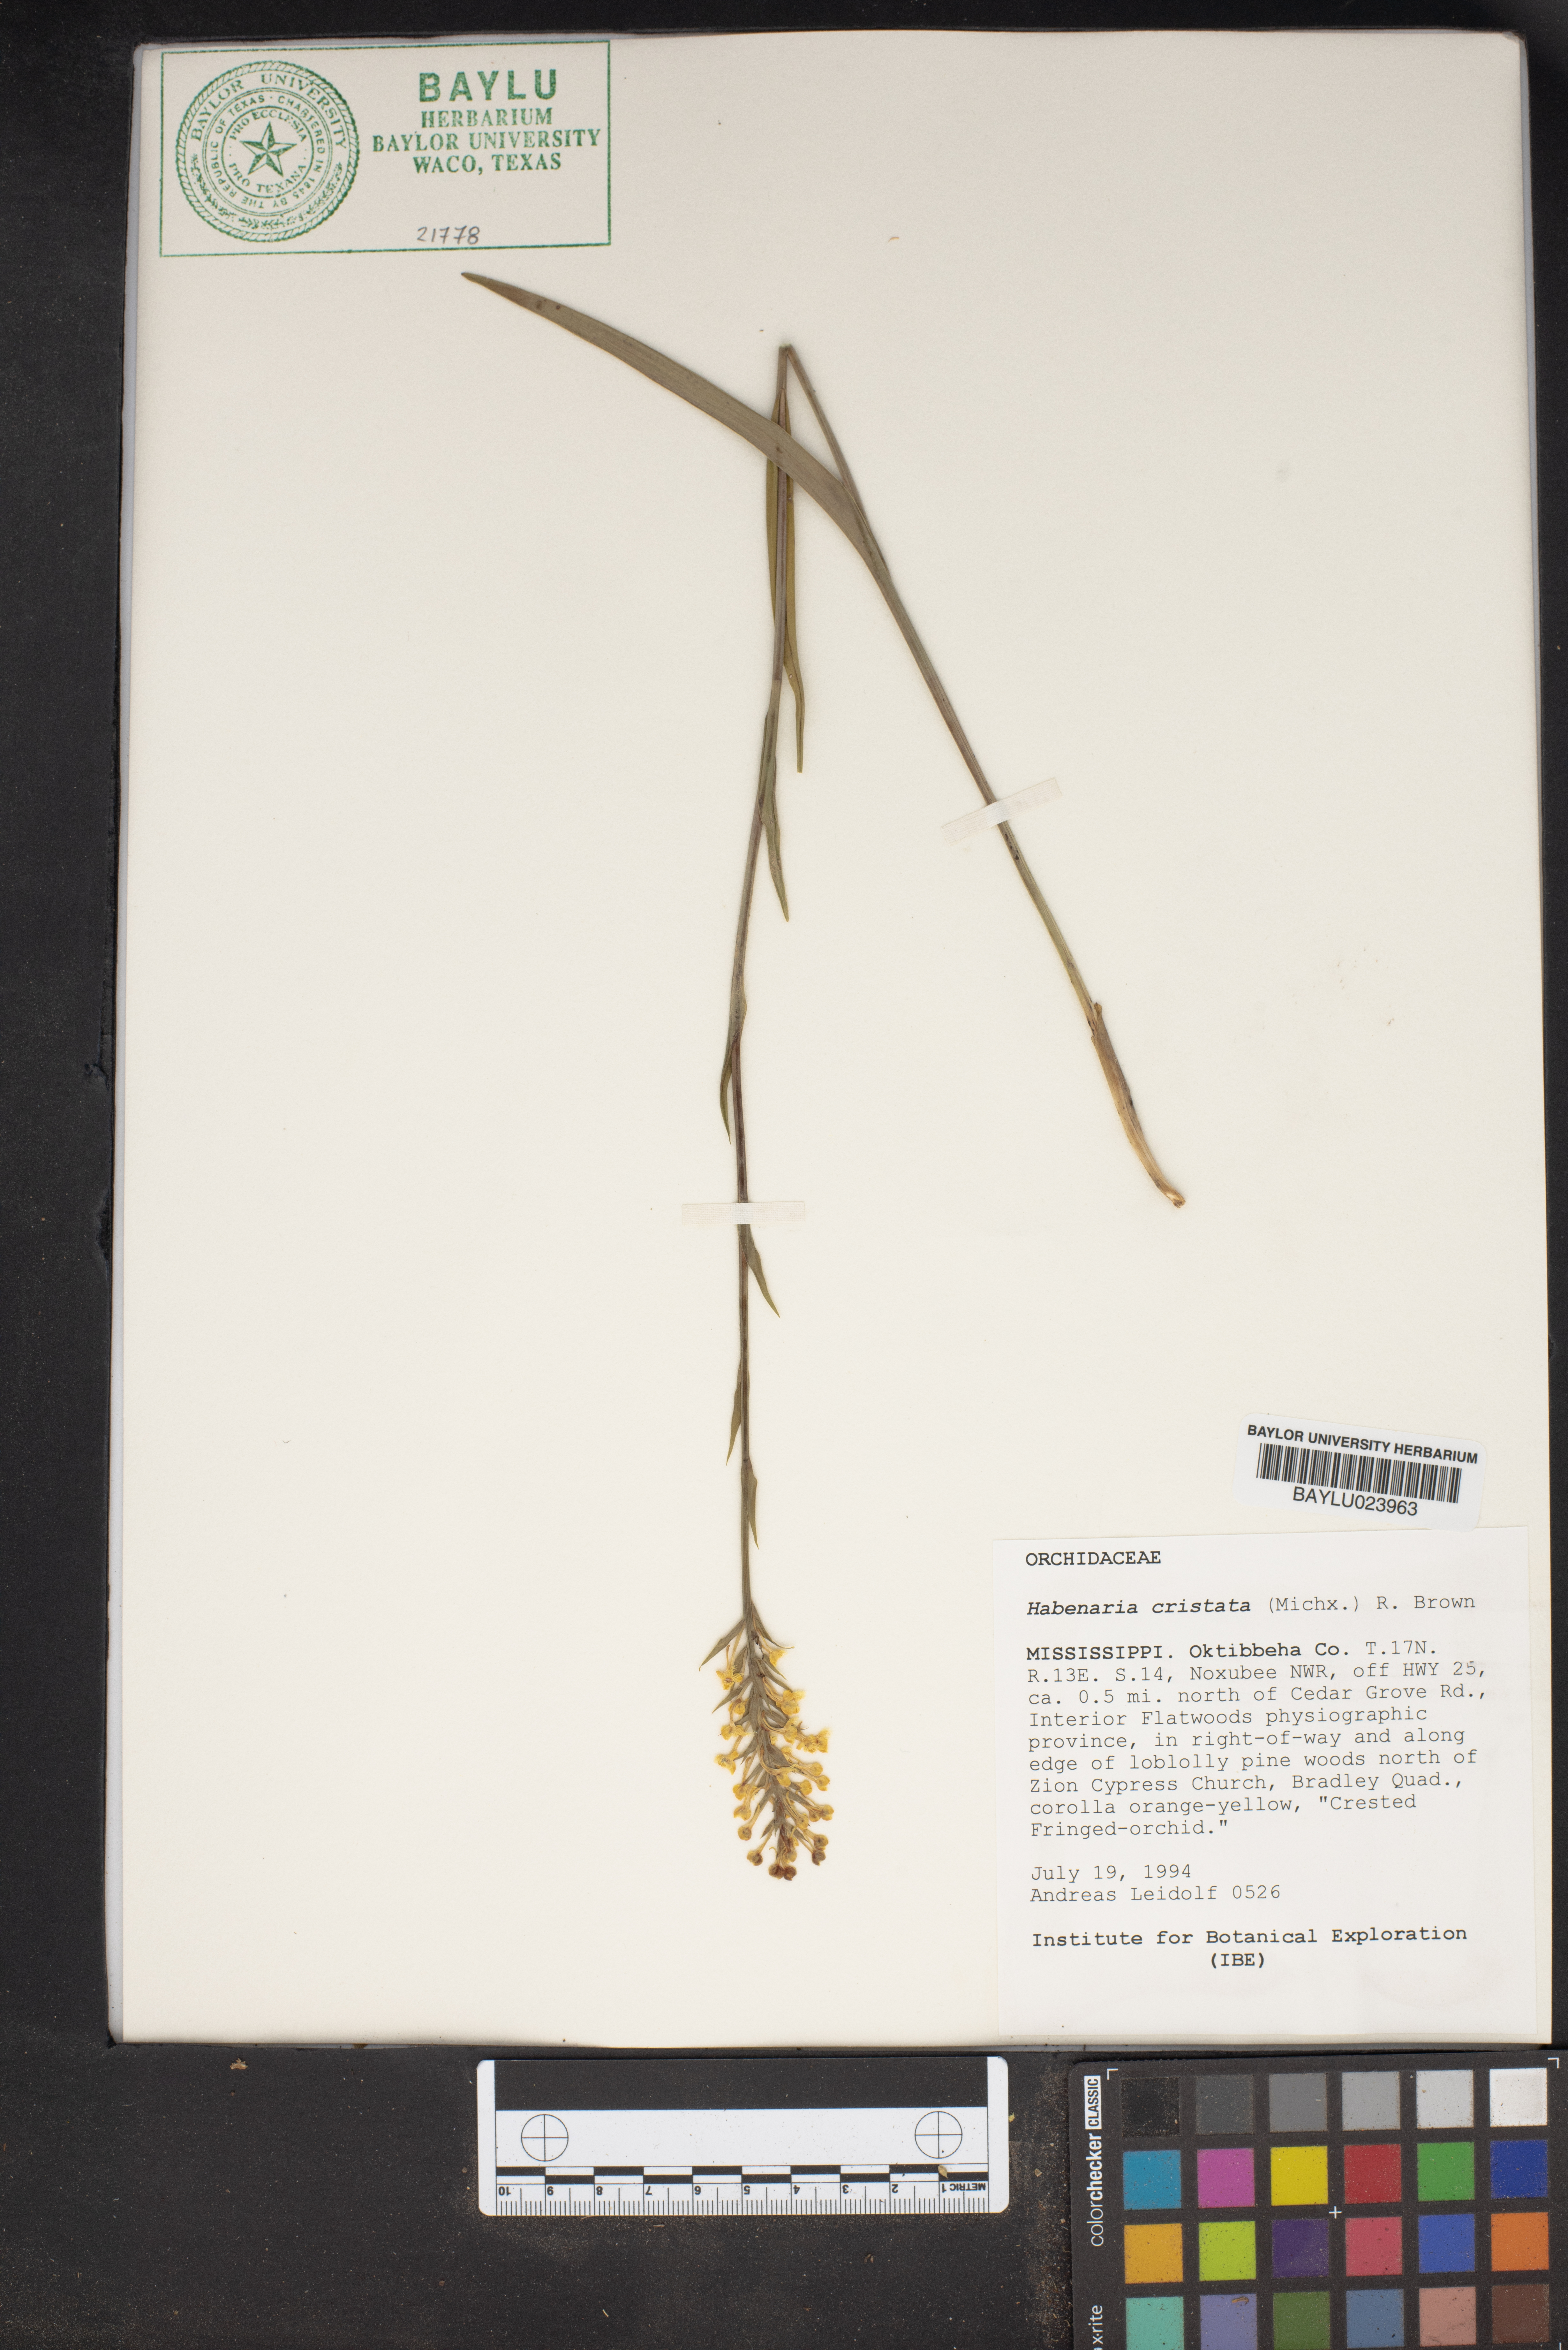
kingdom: Plantae
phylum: Tracheophyta
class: Liliopsida
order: Asparagales
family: Orchidaceae
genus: Platanthera
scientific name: Platanthera cristata
